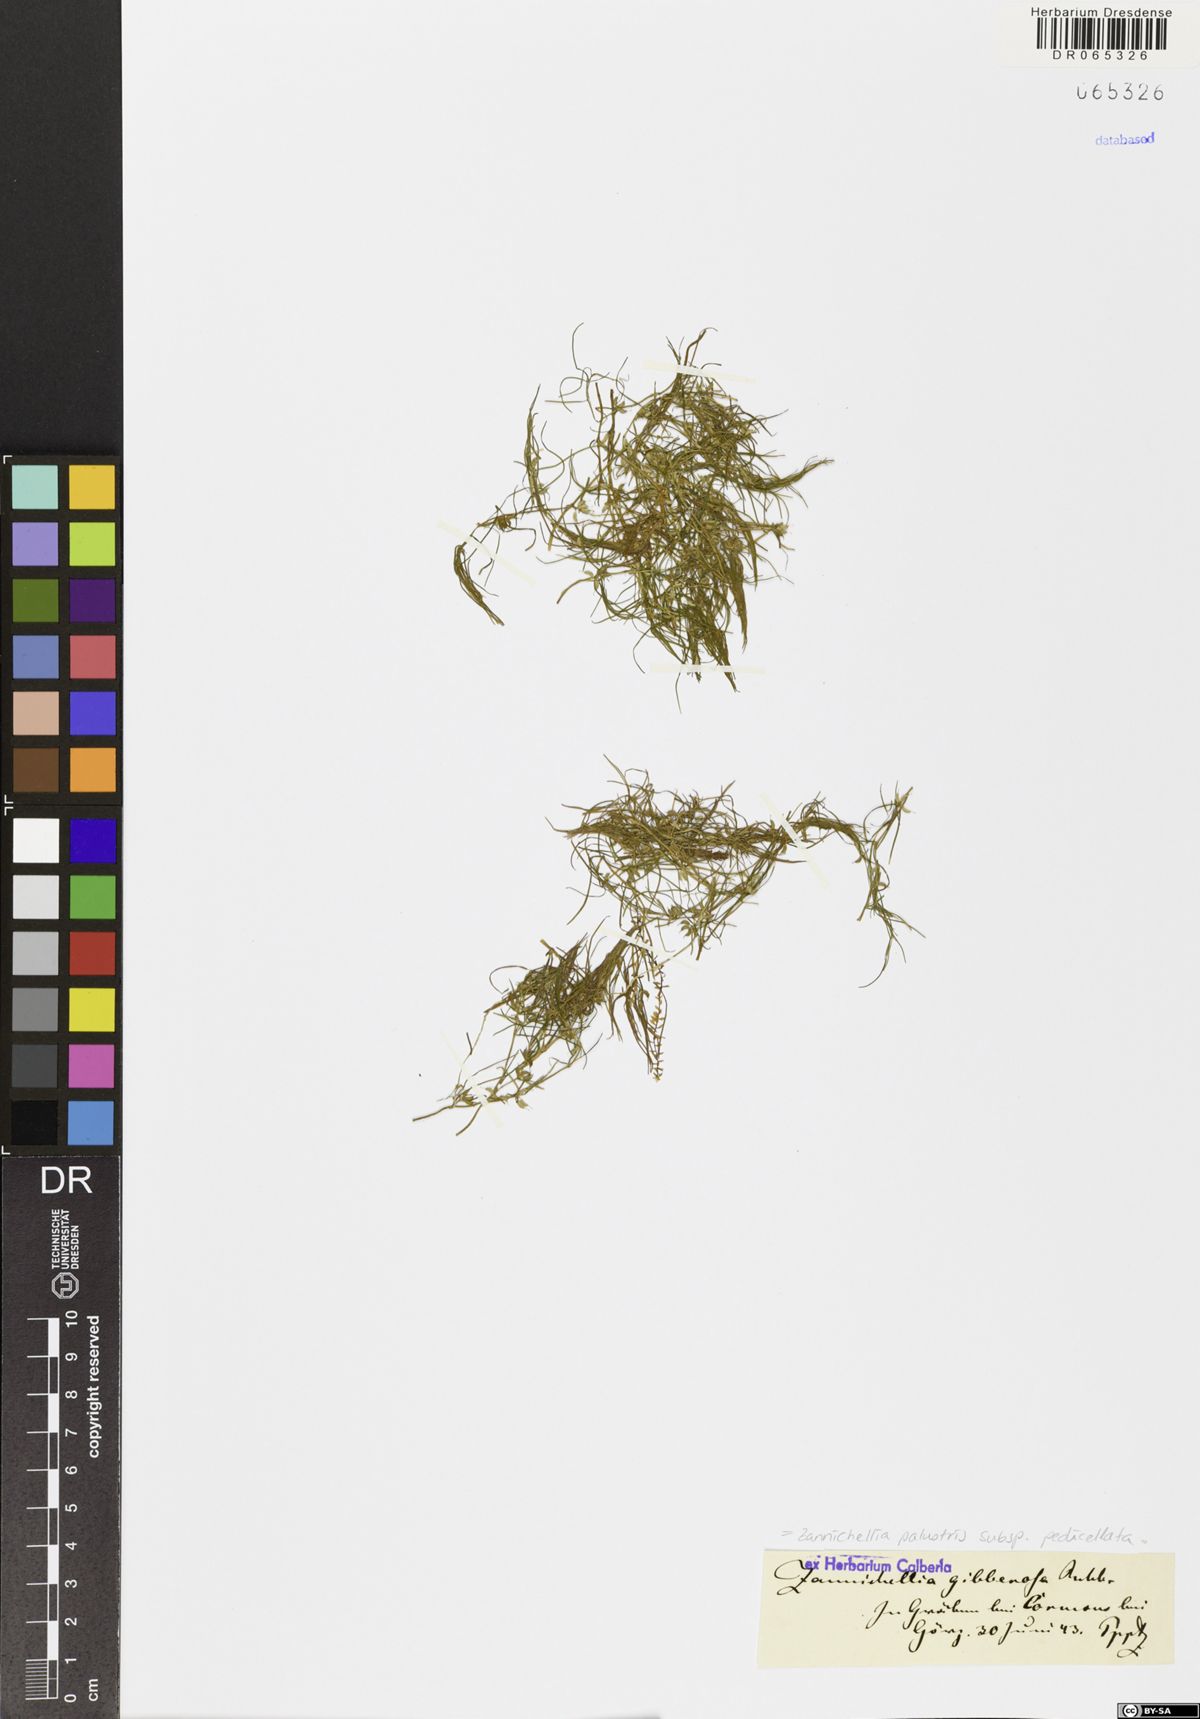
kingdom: Plantae
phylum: Tracheophyta
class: Liliopsida
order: Alismatales
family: Potamogetonaceae
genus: Zannichellia
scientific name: Zannichellia palustris
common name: Horned pondweed
